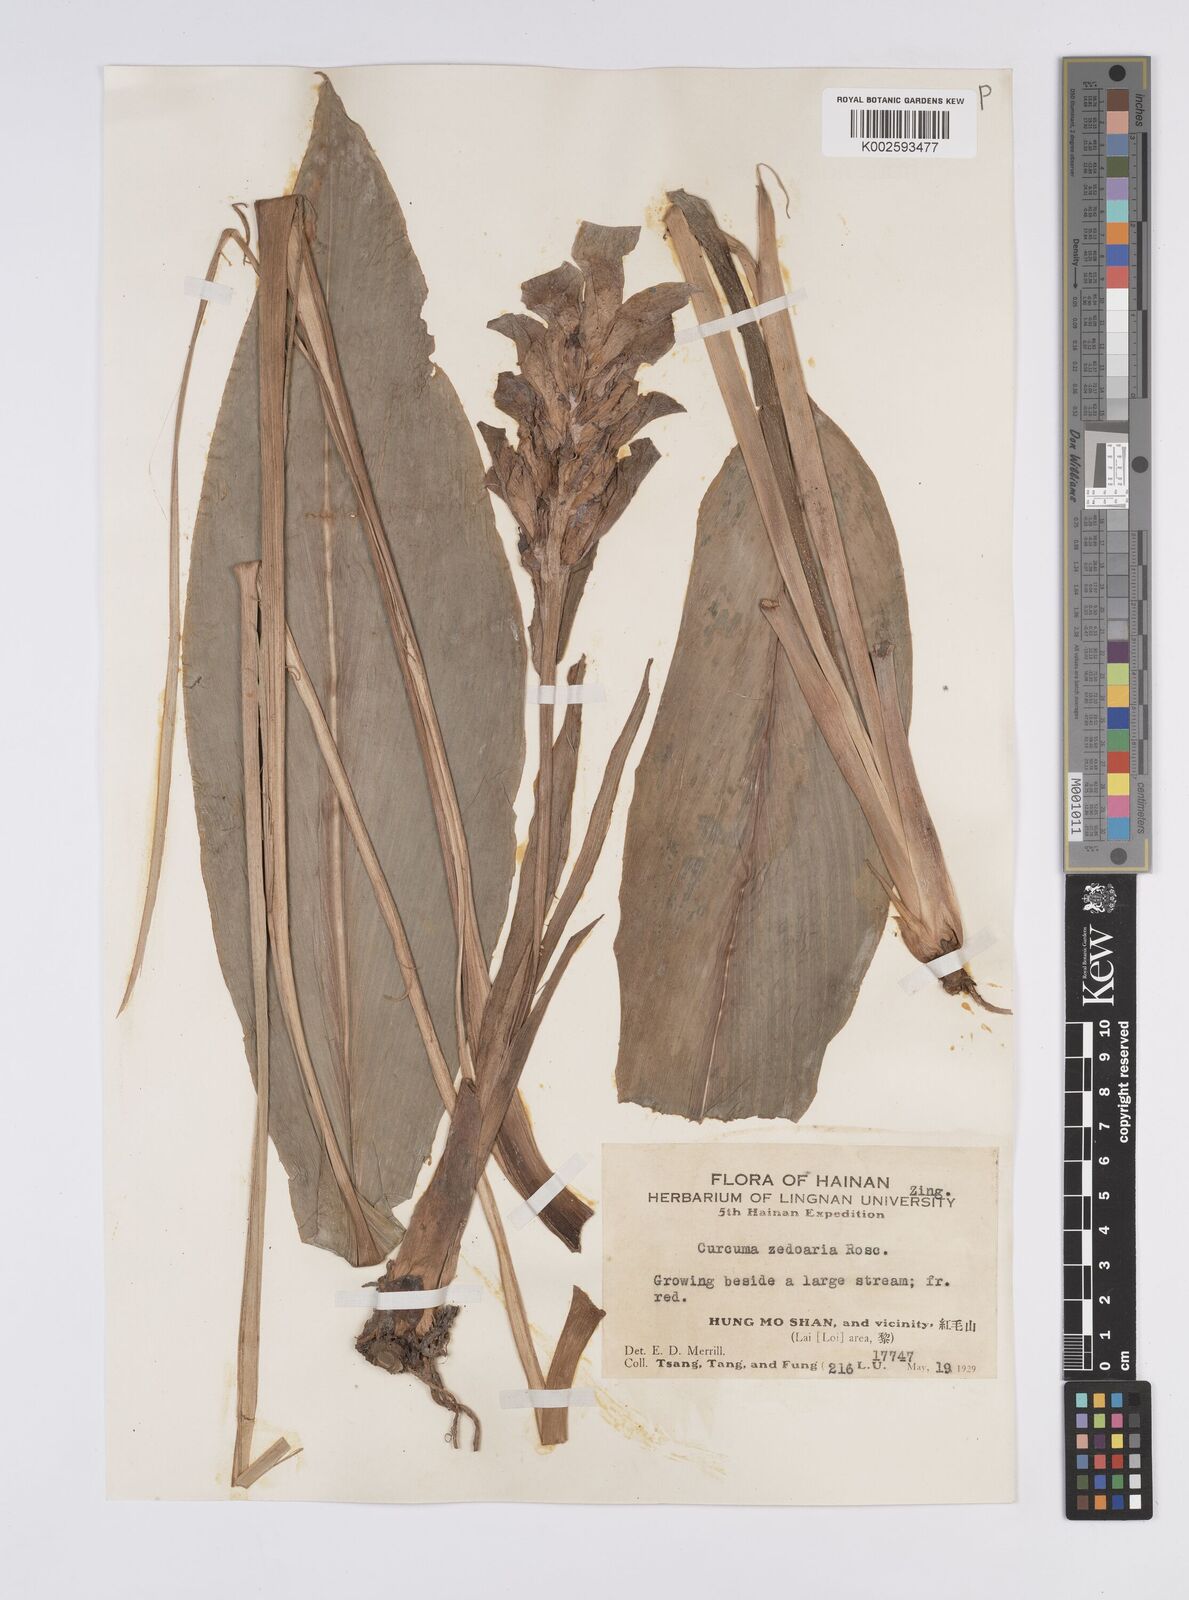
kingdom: Plantae
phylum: Tracheophyta
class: Liliopsida
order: Zingiberales
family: Zingiberaceae
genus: Curcuma
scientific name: Curcuma zedoaria
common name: Zedoary
